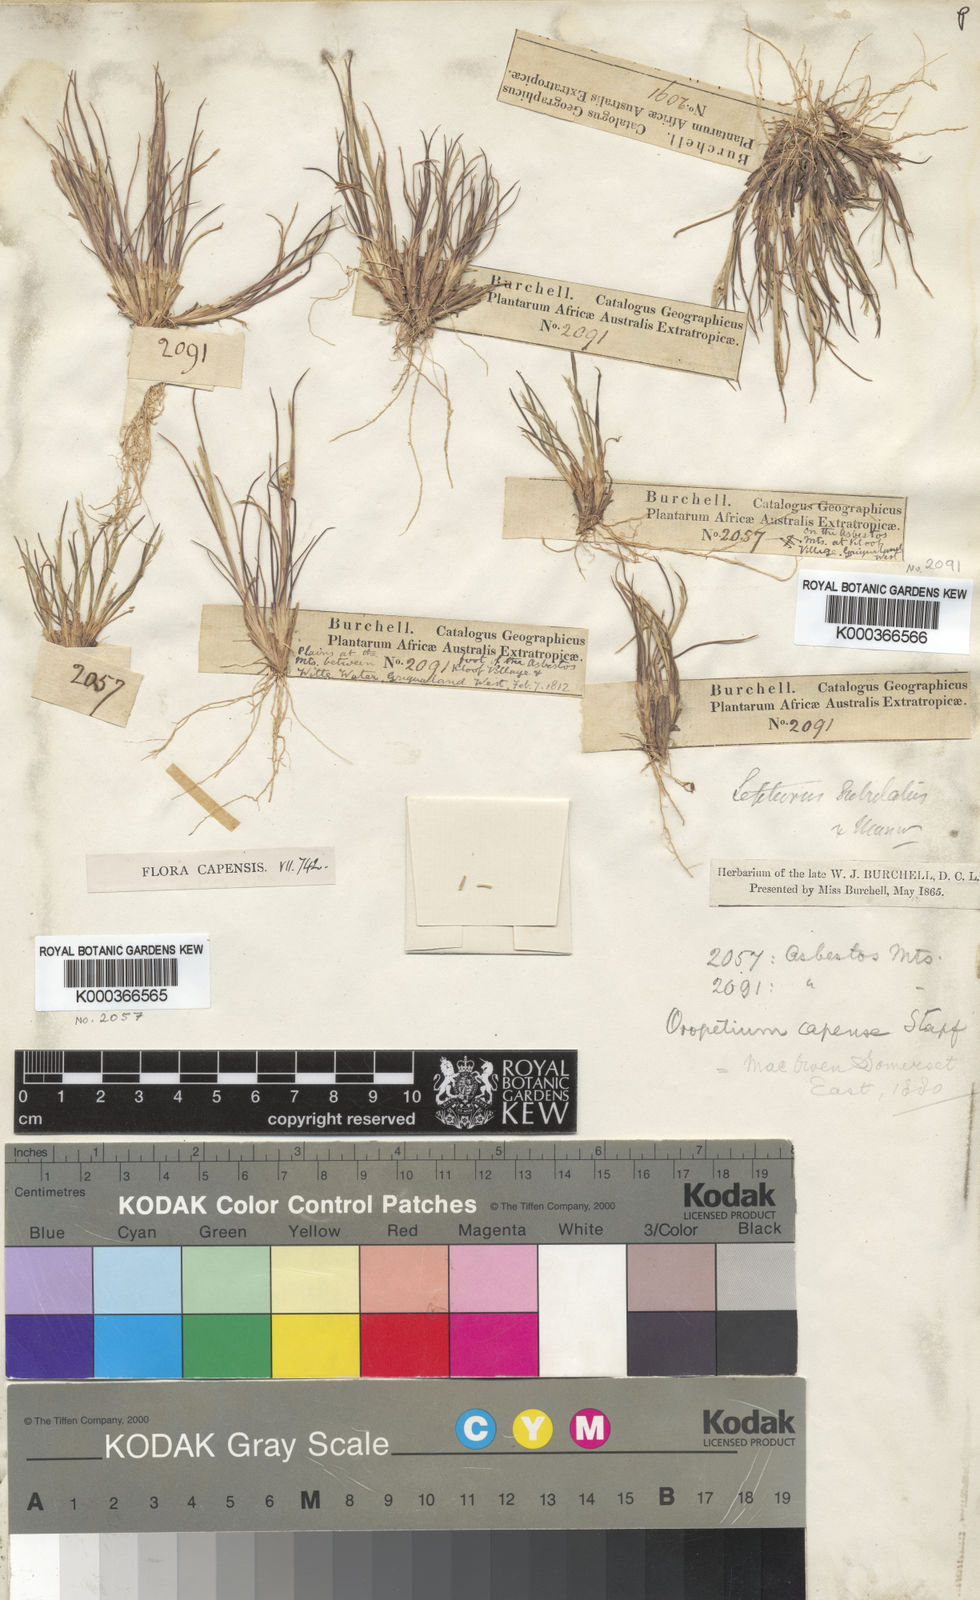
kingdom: Plantae
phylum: Tracheophyta
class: Liliopsida
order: Poales
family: Poaceae
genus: Oropetium
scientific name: Oropetium capense
